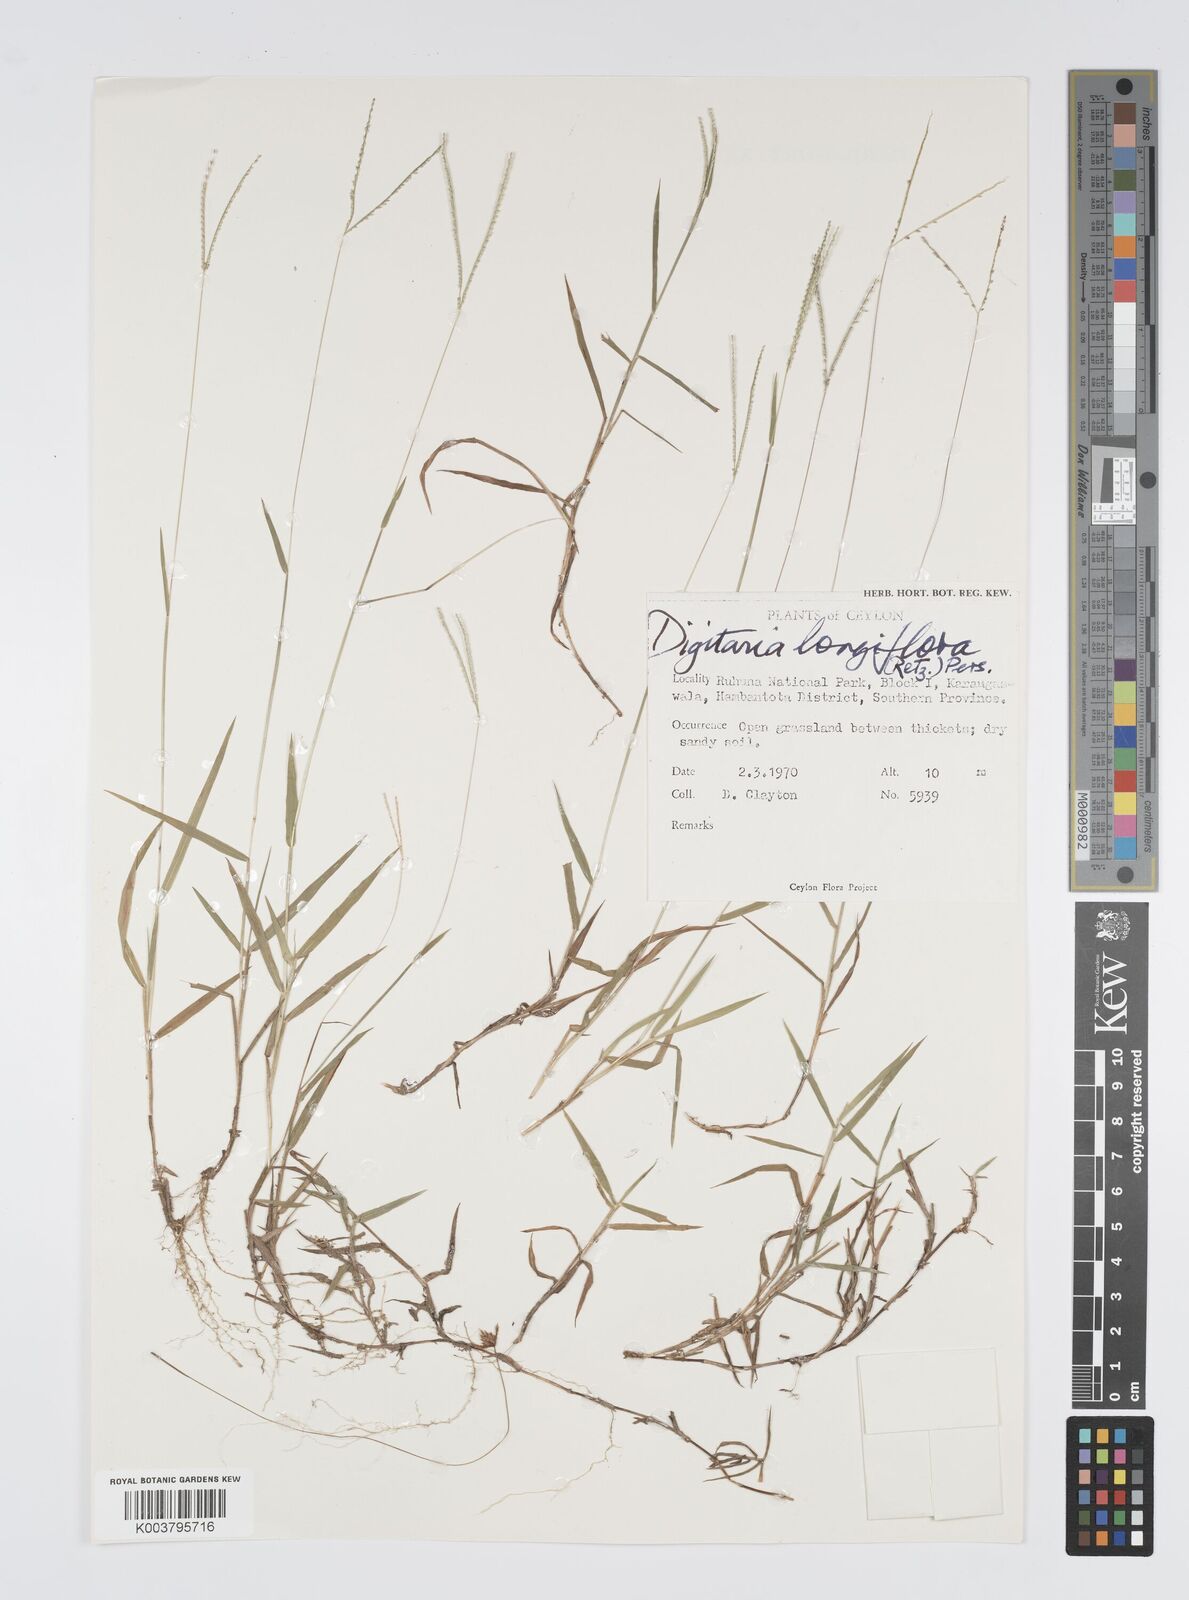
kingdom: Plantae
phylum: Tracheophyta
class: Liliopsida
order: Poales
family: Poaceae
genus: Digitaria
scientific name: Digitaria longiflora
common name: Wire crabgrass
